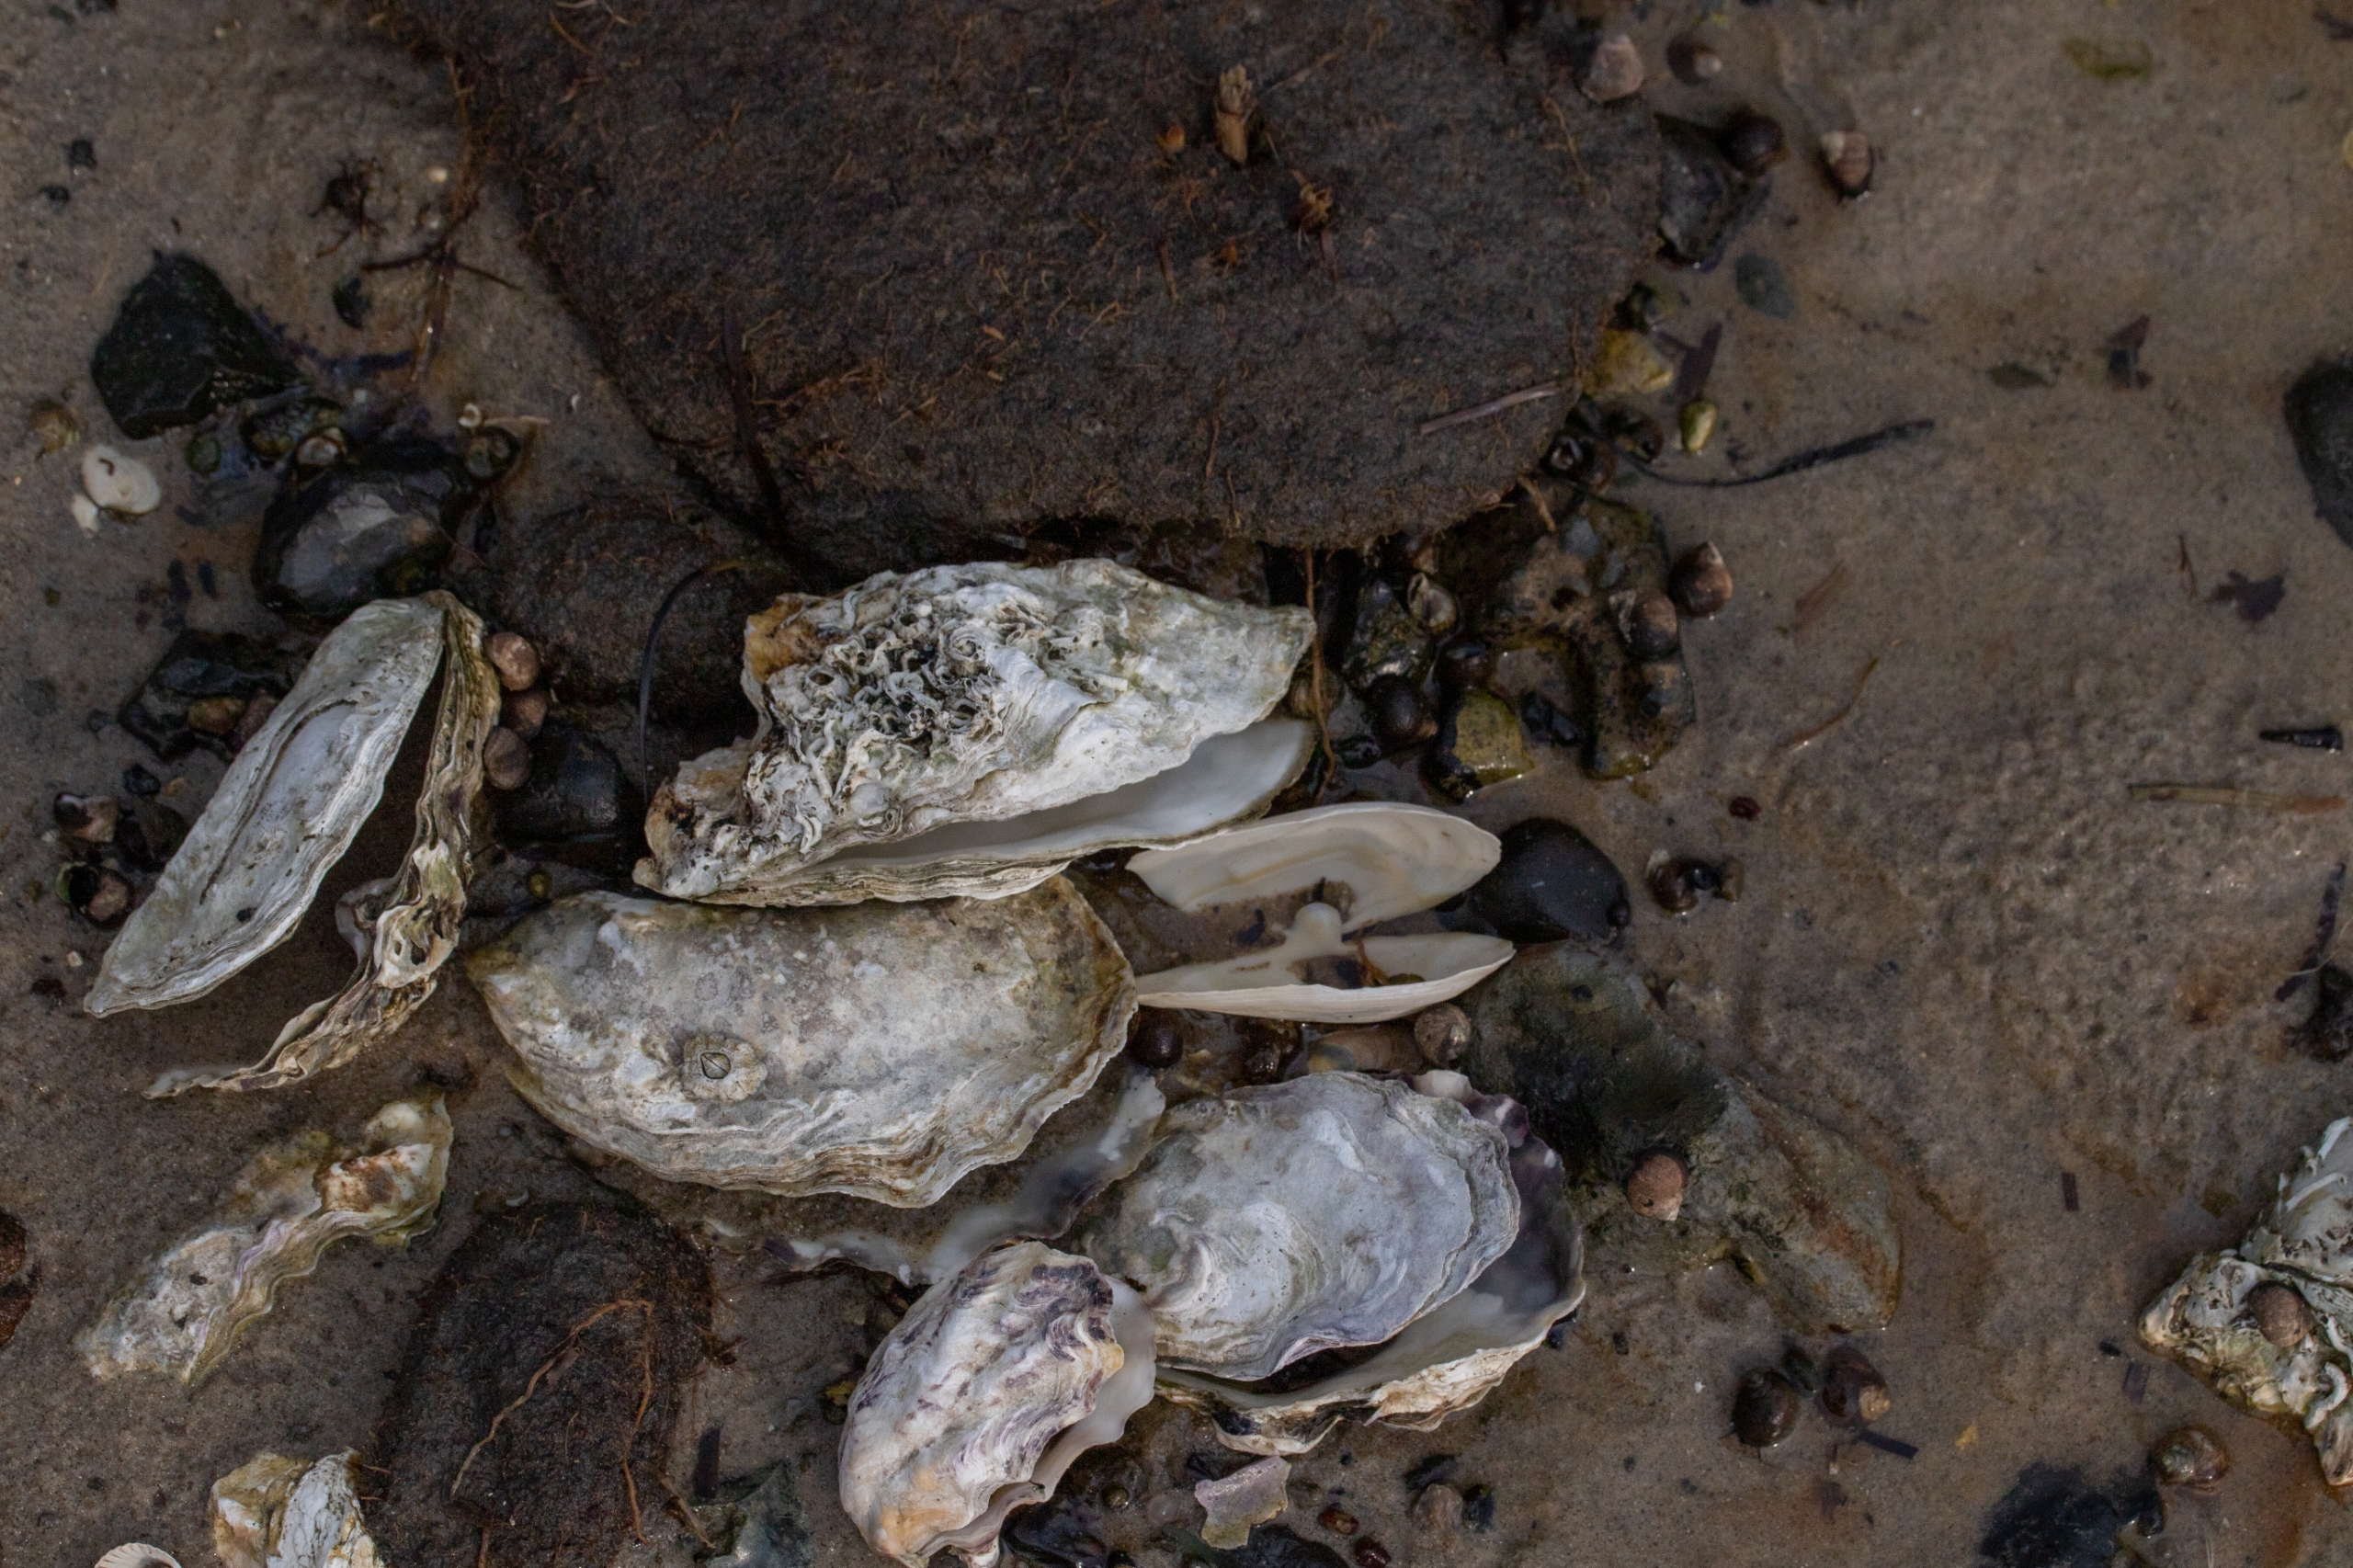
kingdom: Animalia
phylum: Mollusca
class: Bivalvia
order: Ostreida
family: Ostreidae
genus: Magallana
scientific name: Magallana gigas
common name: Stillehavsøsters
